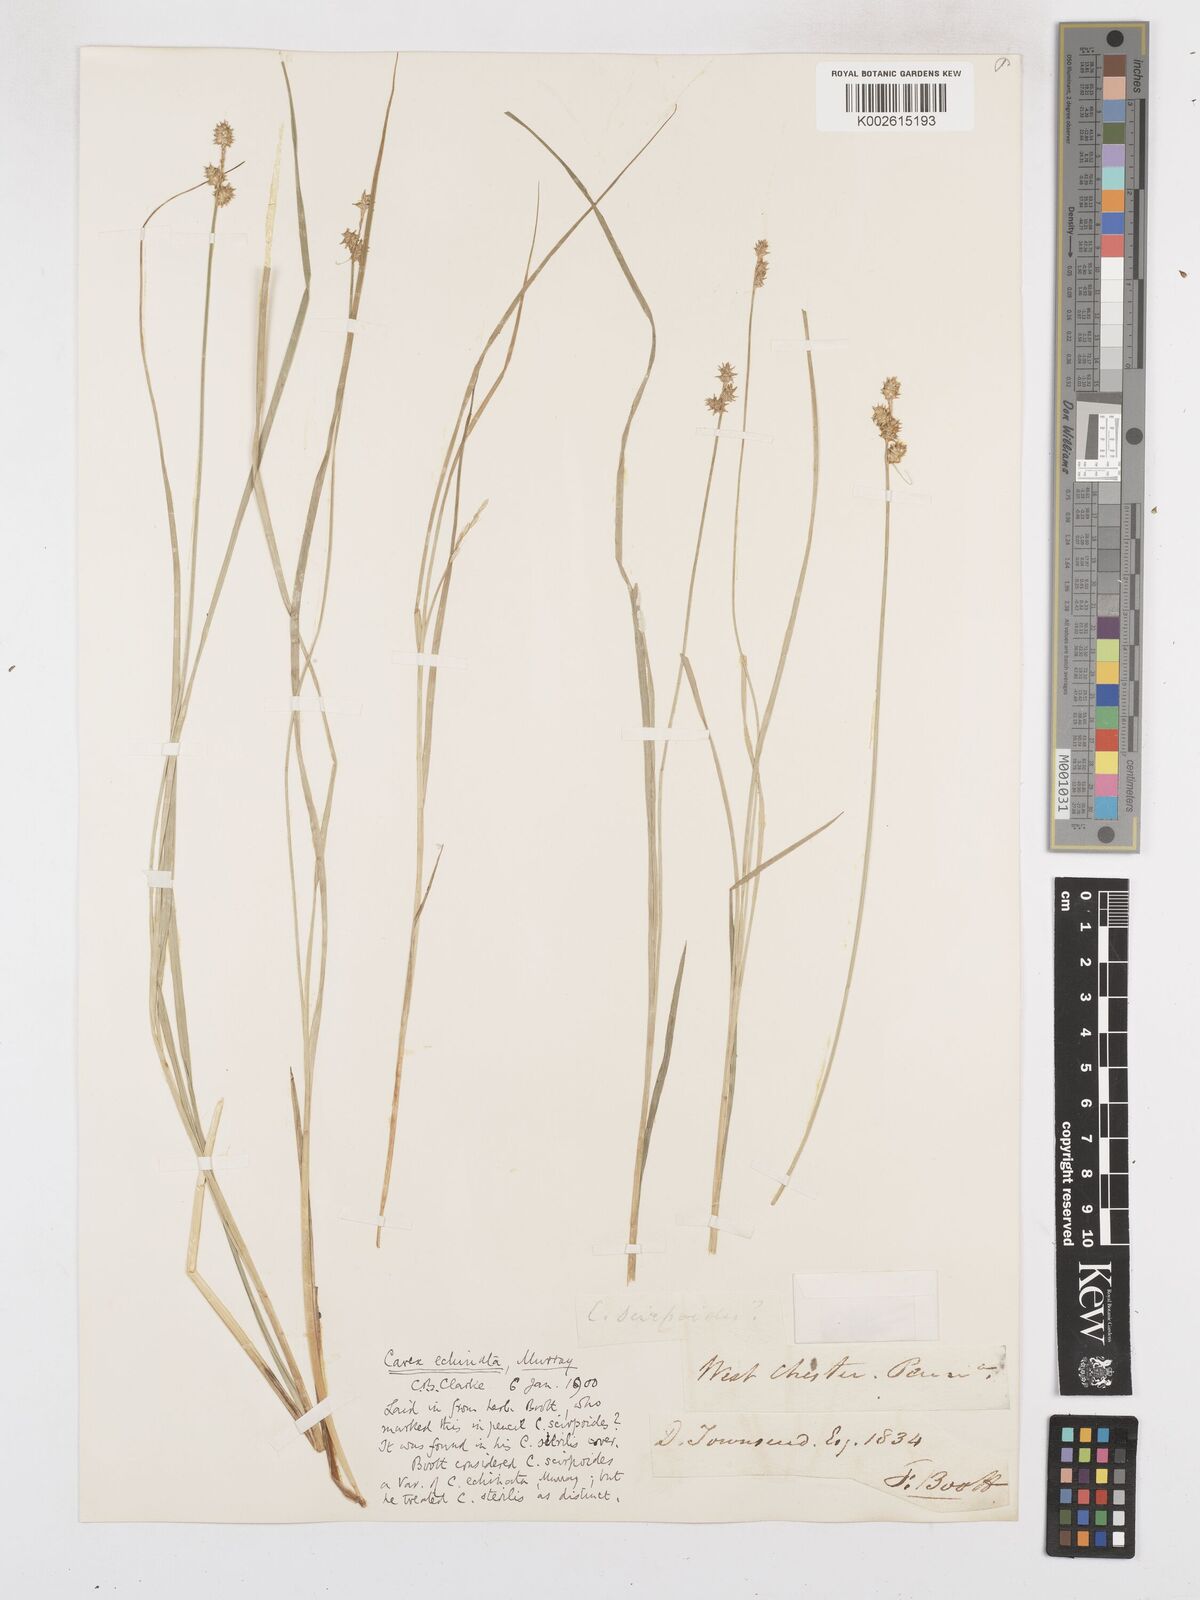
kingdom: Plantae
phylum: Tracheophyta
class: Liliopsida
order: Poales
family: Cyperaceae
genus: Carex
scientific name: Carex echinata
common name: Star sedge
